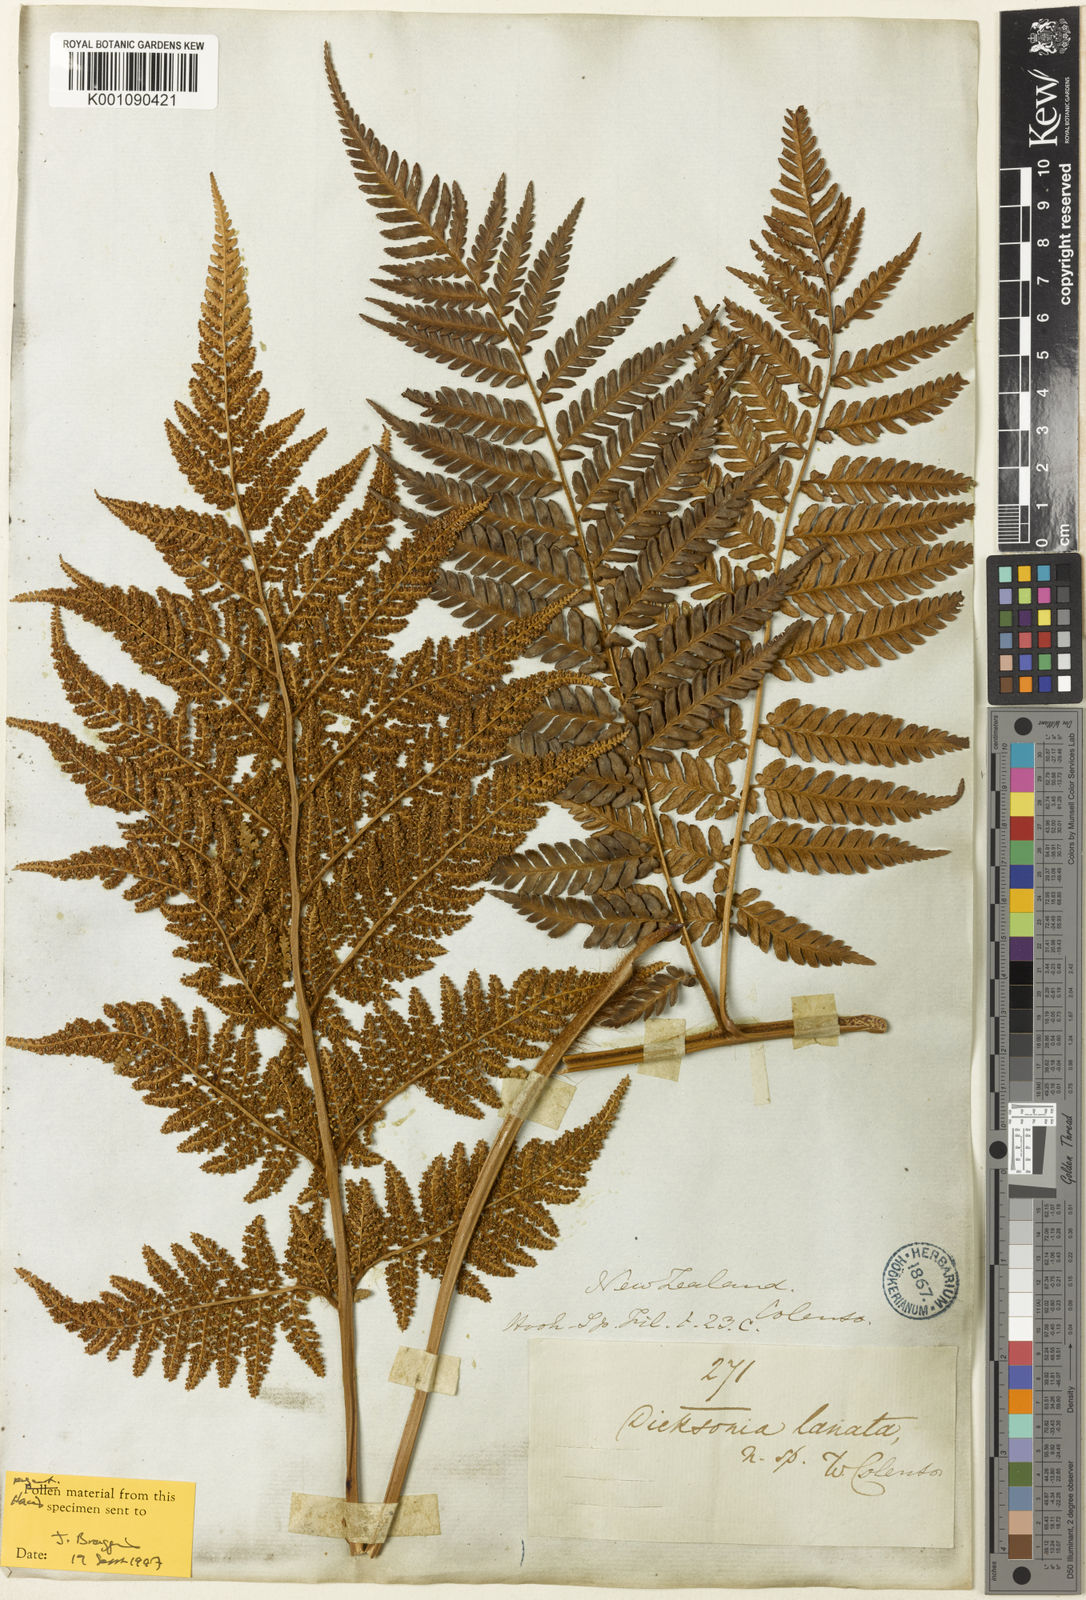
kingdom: Plantae
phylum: Tracheophyta
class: Polypodiopsida
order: Cyatheales
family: Dicksoniaceae
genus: Dicksonia
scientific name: Dicksonia lanata
